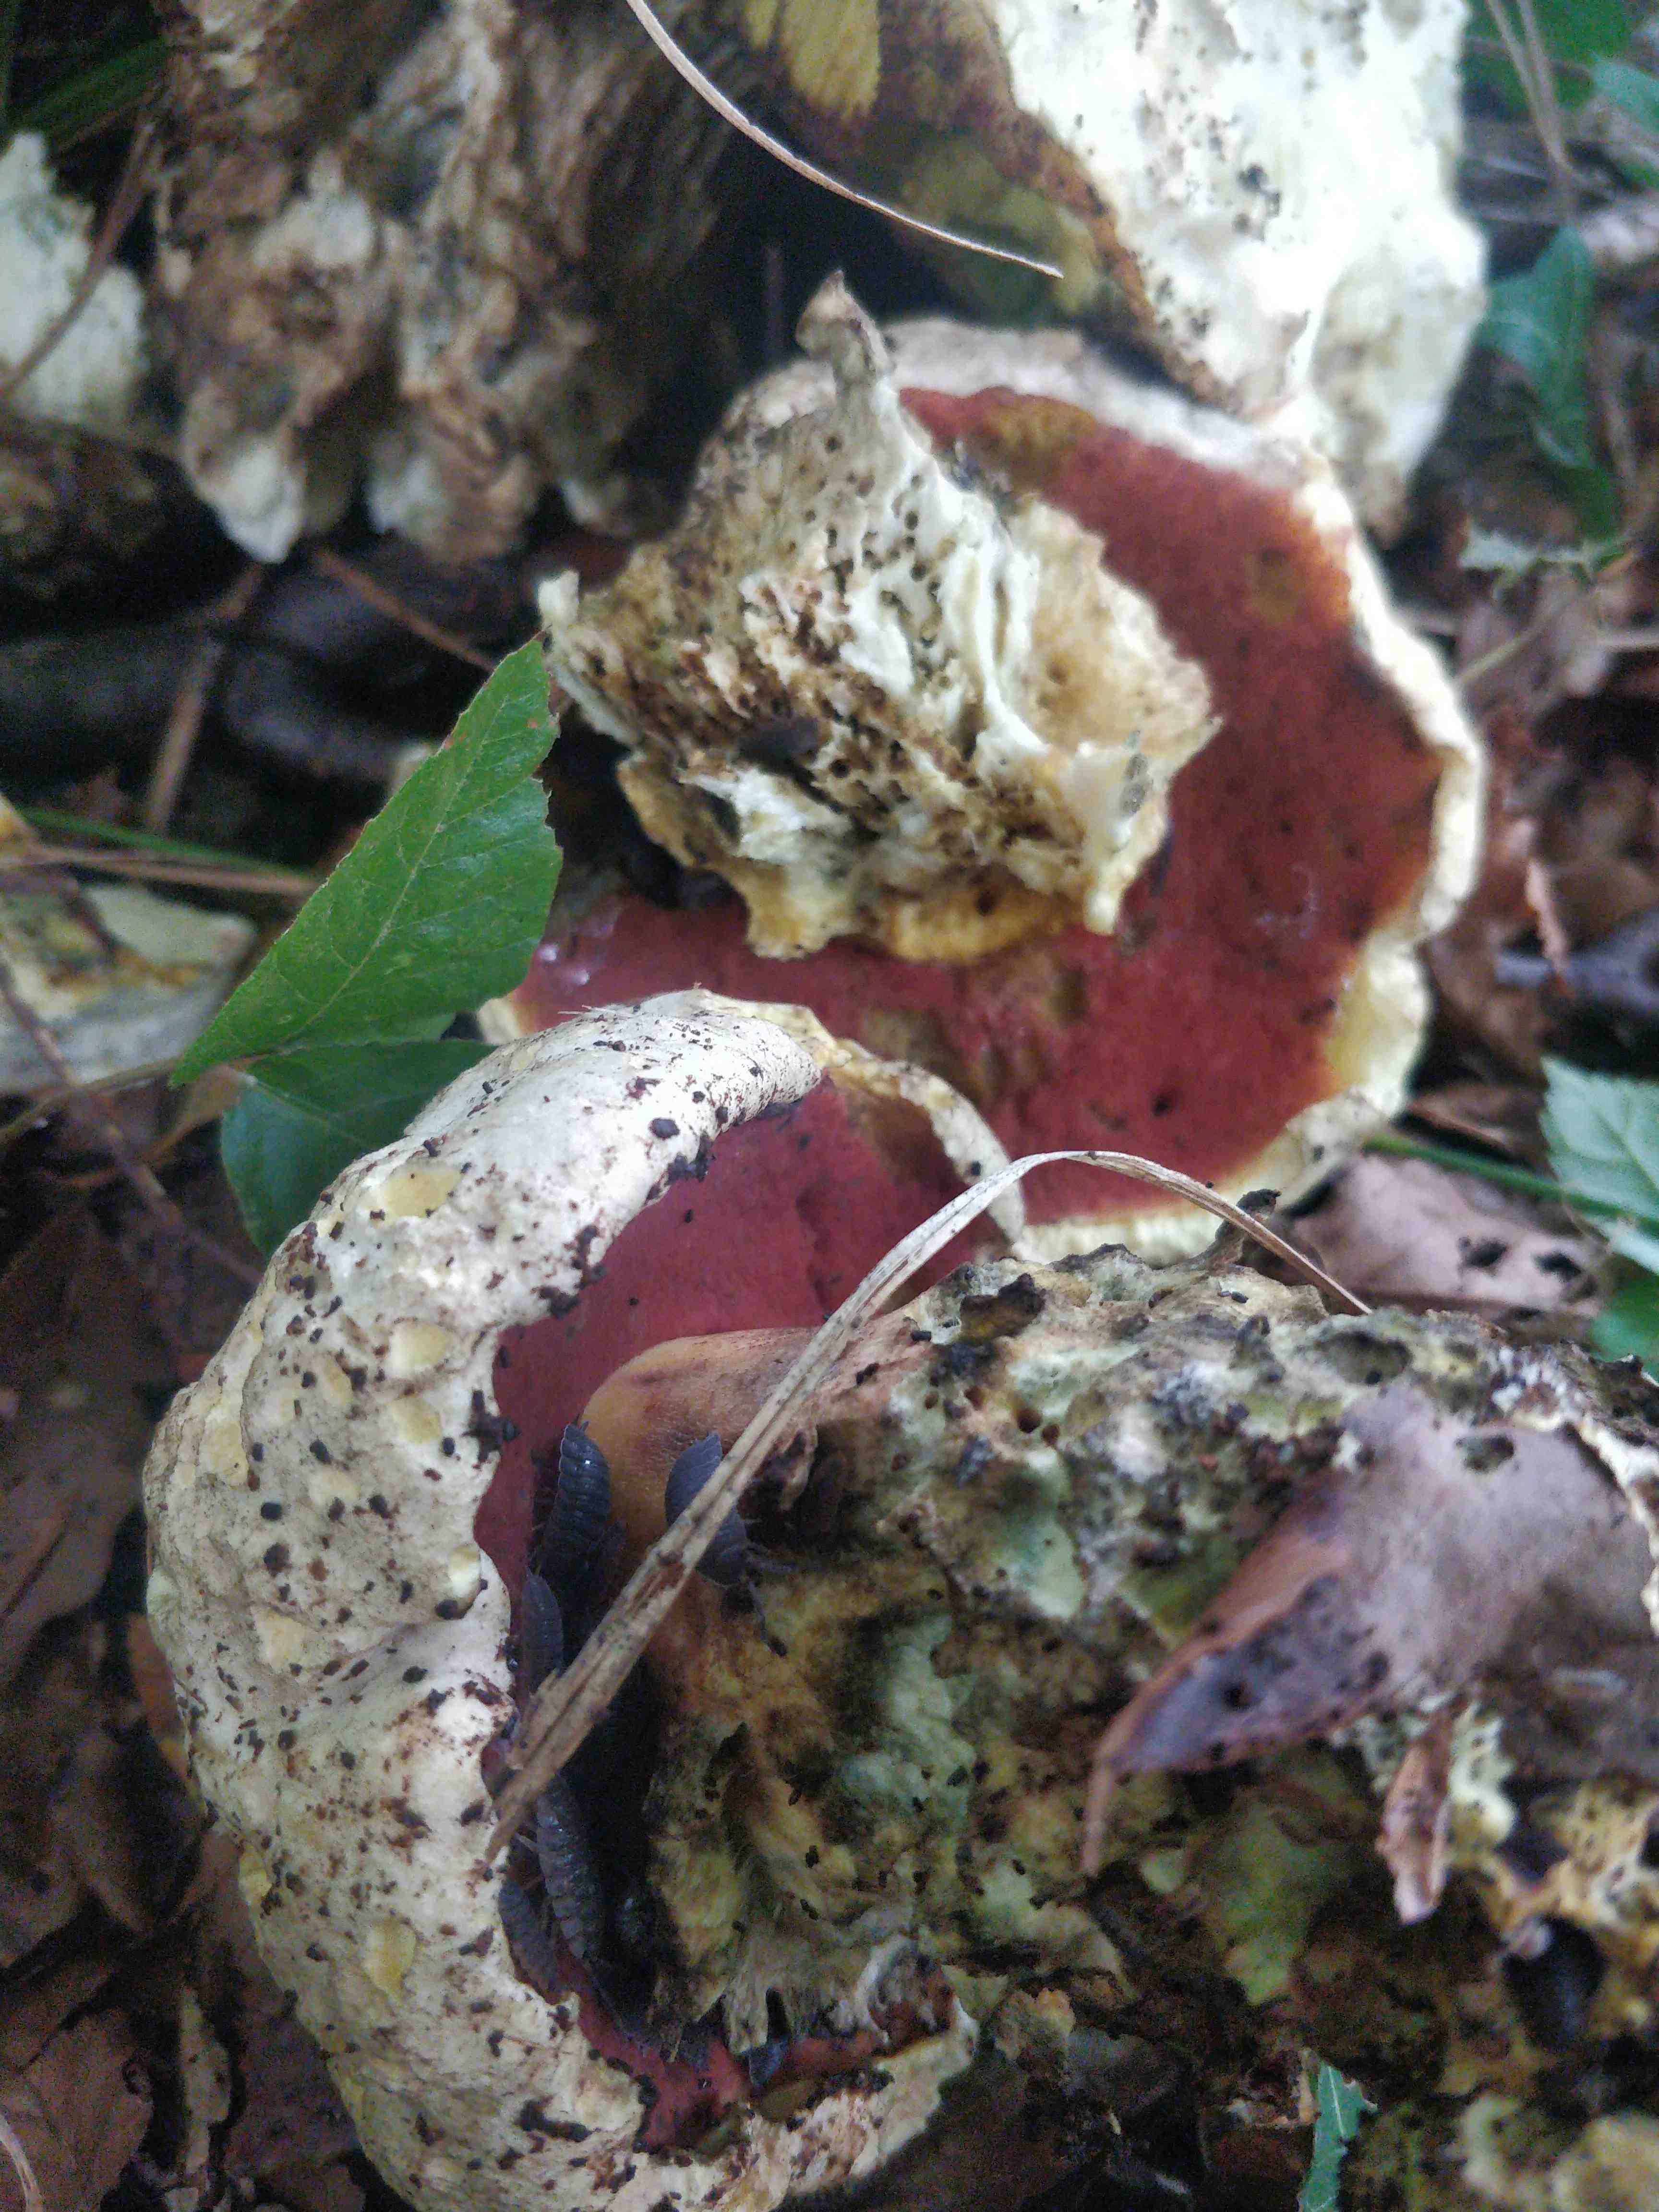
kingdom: Fungi
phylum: Basidiomycota
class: Agaricomycetes
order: Boletales
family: Boletaceae
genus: Rubroboletus
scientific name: Rubroboletus satanas
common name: Satans rørhat
